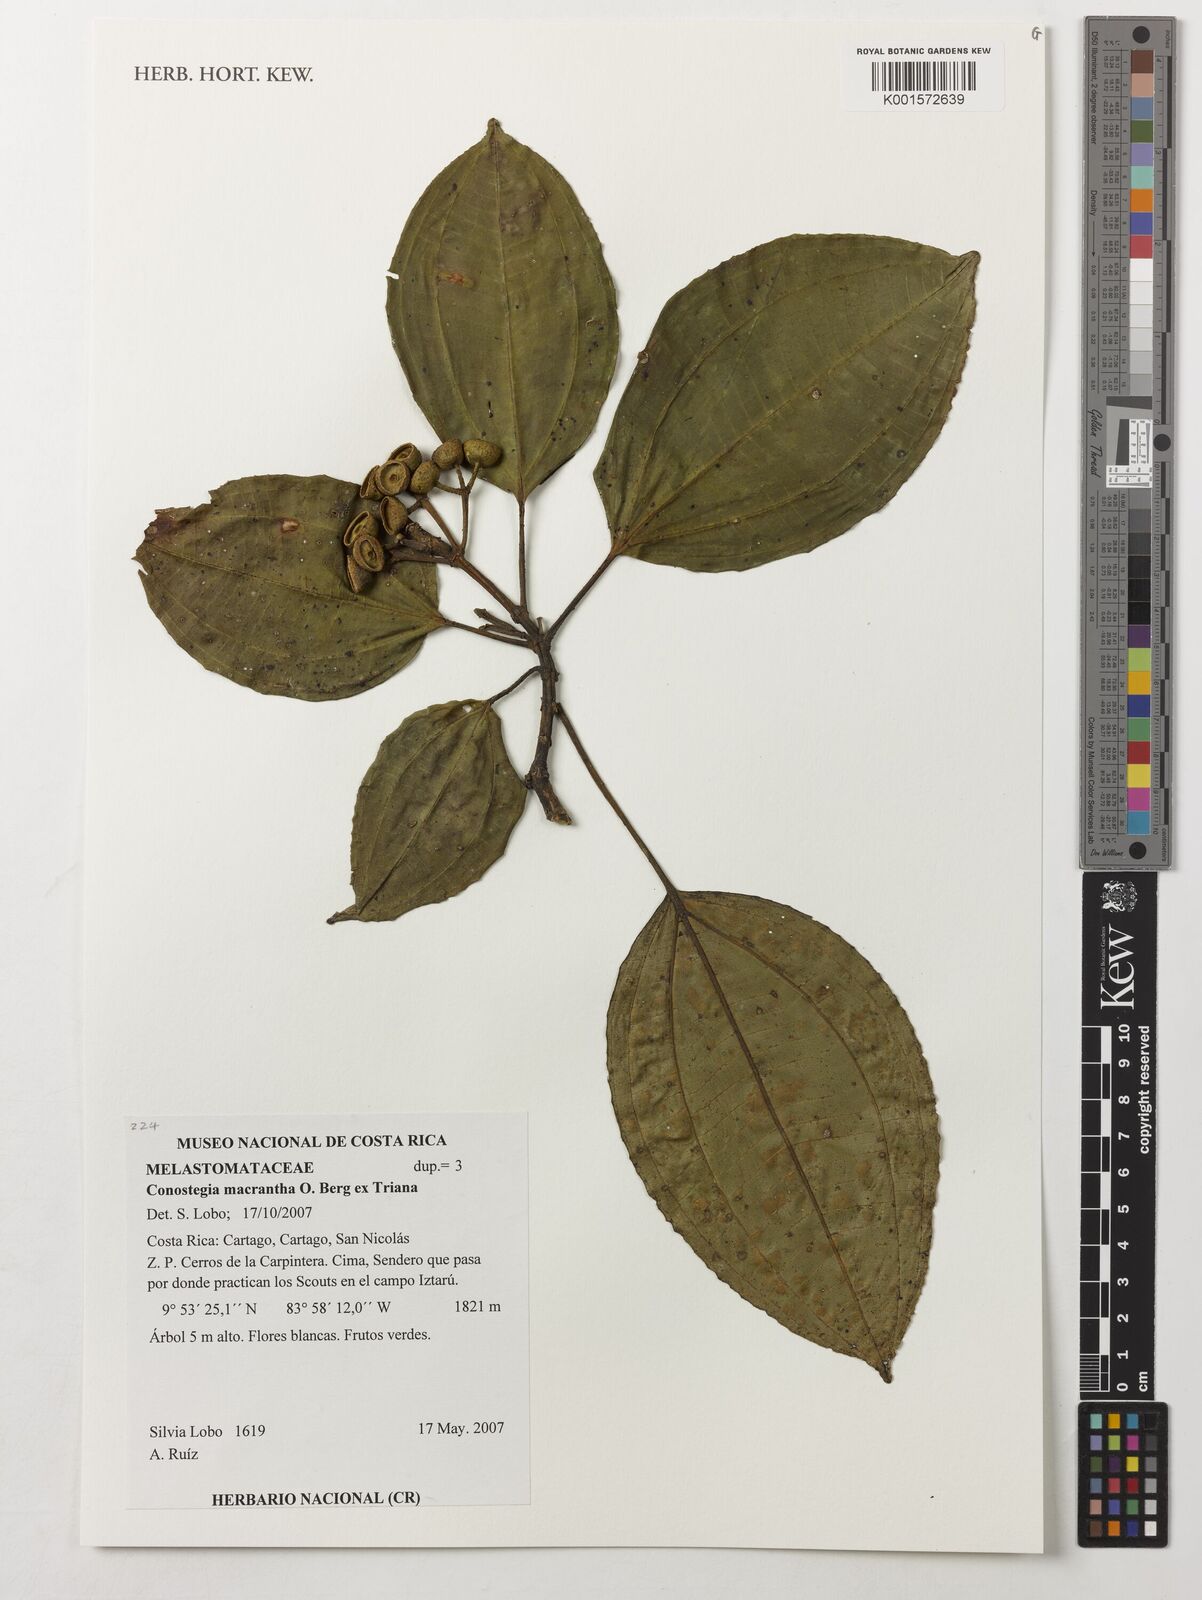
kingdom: Plantae
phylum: Tracheophyta
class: Magnoliopsida
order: Myrtales
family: Melastomataceae
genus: Miconia
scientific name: Miconia conomacrantha
